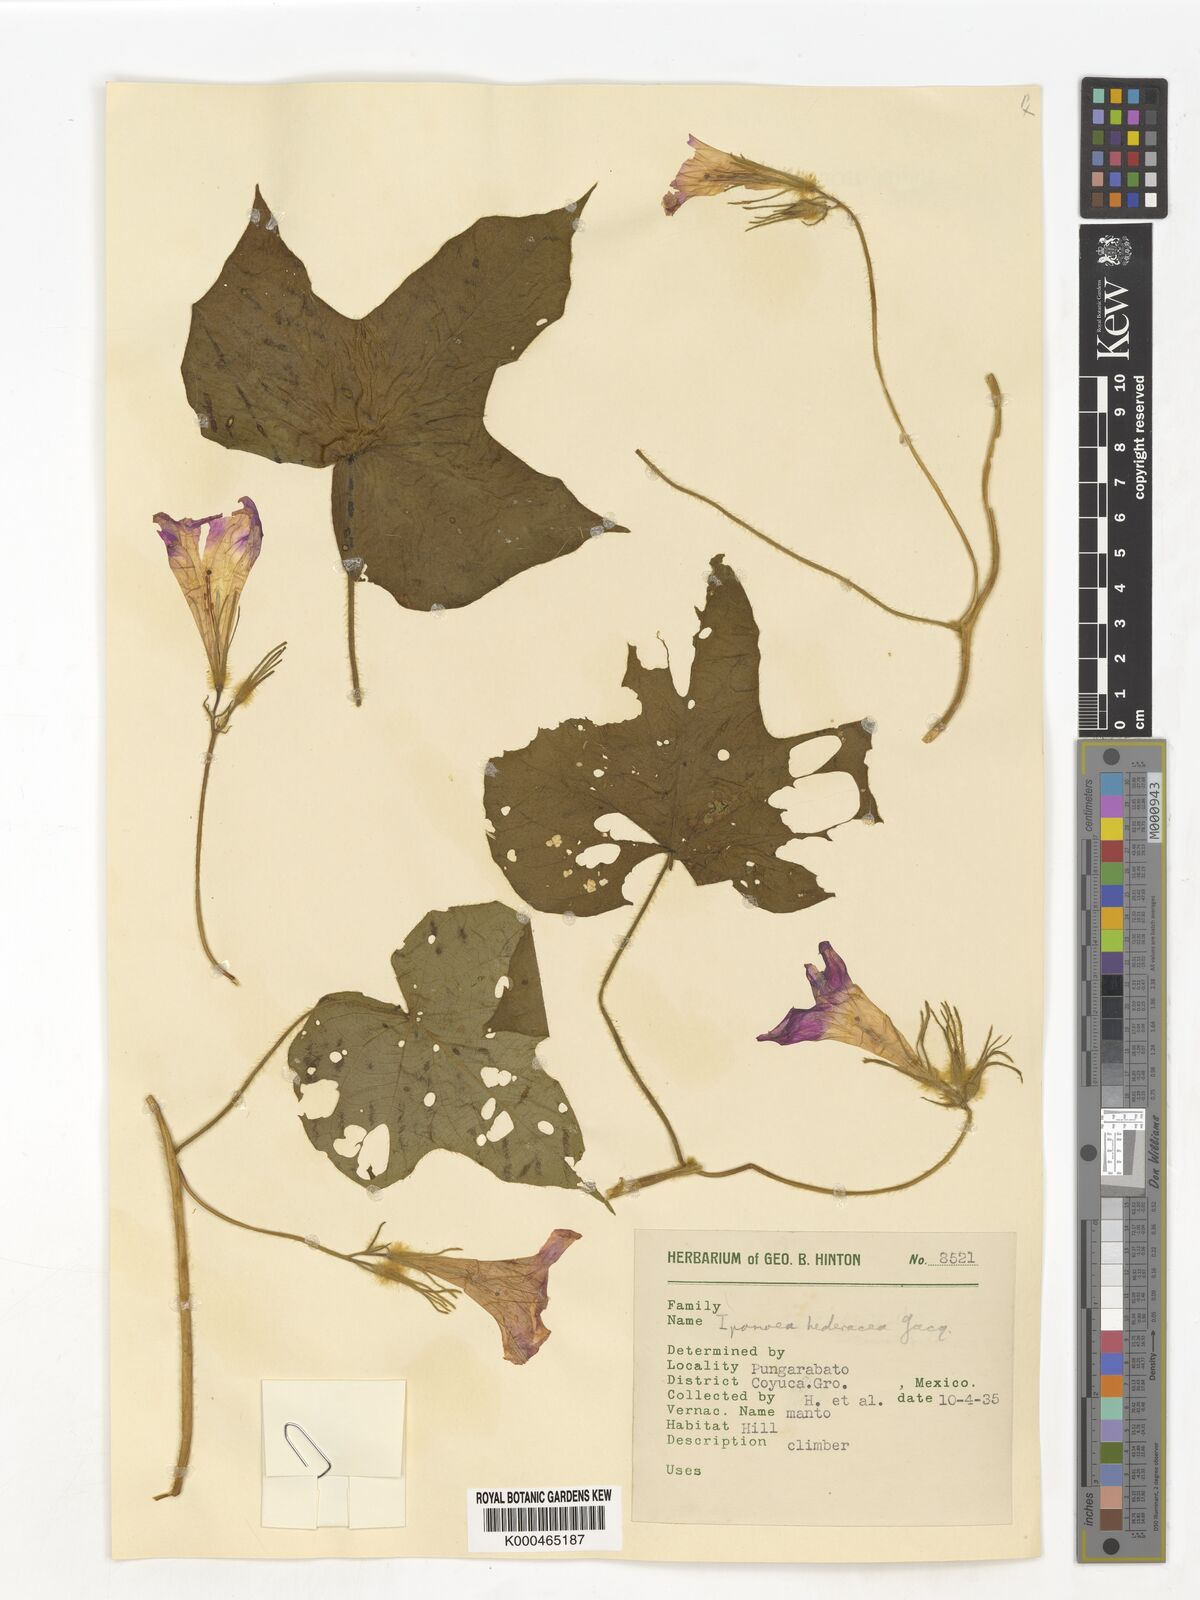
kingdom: Plantae
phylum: Tracheophyta
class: Magnoliopsida
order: Solanales
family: Convolvulaceae
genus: Ipomoea
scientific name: Ipomoea hederacea
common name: Ivy-leaved morning-glory
